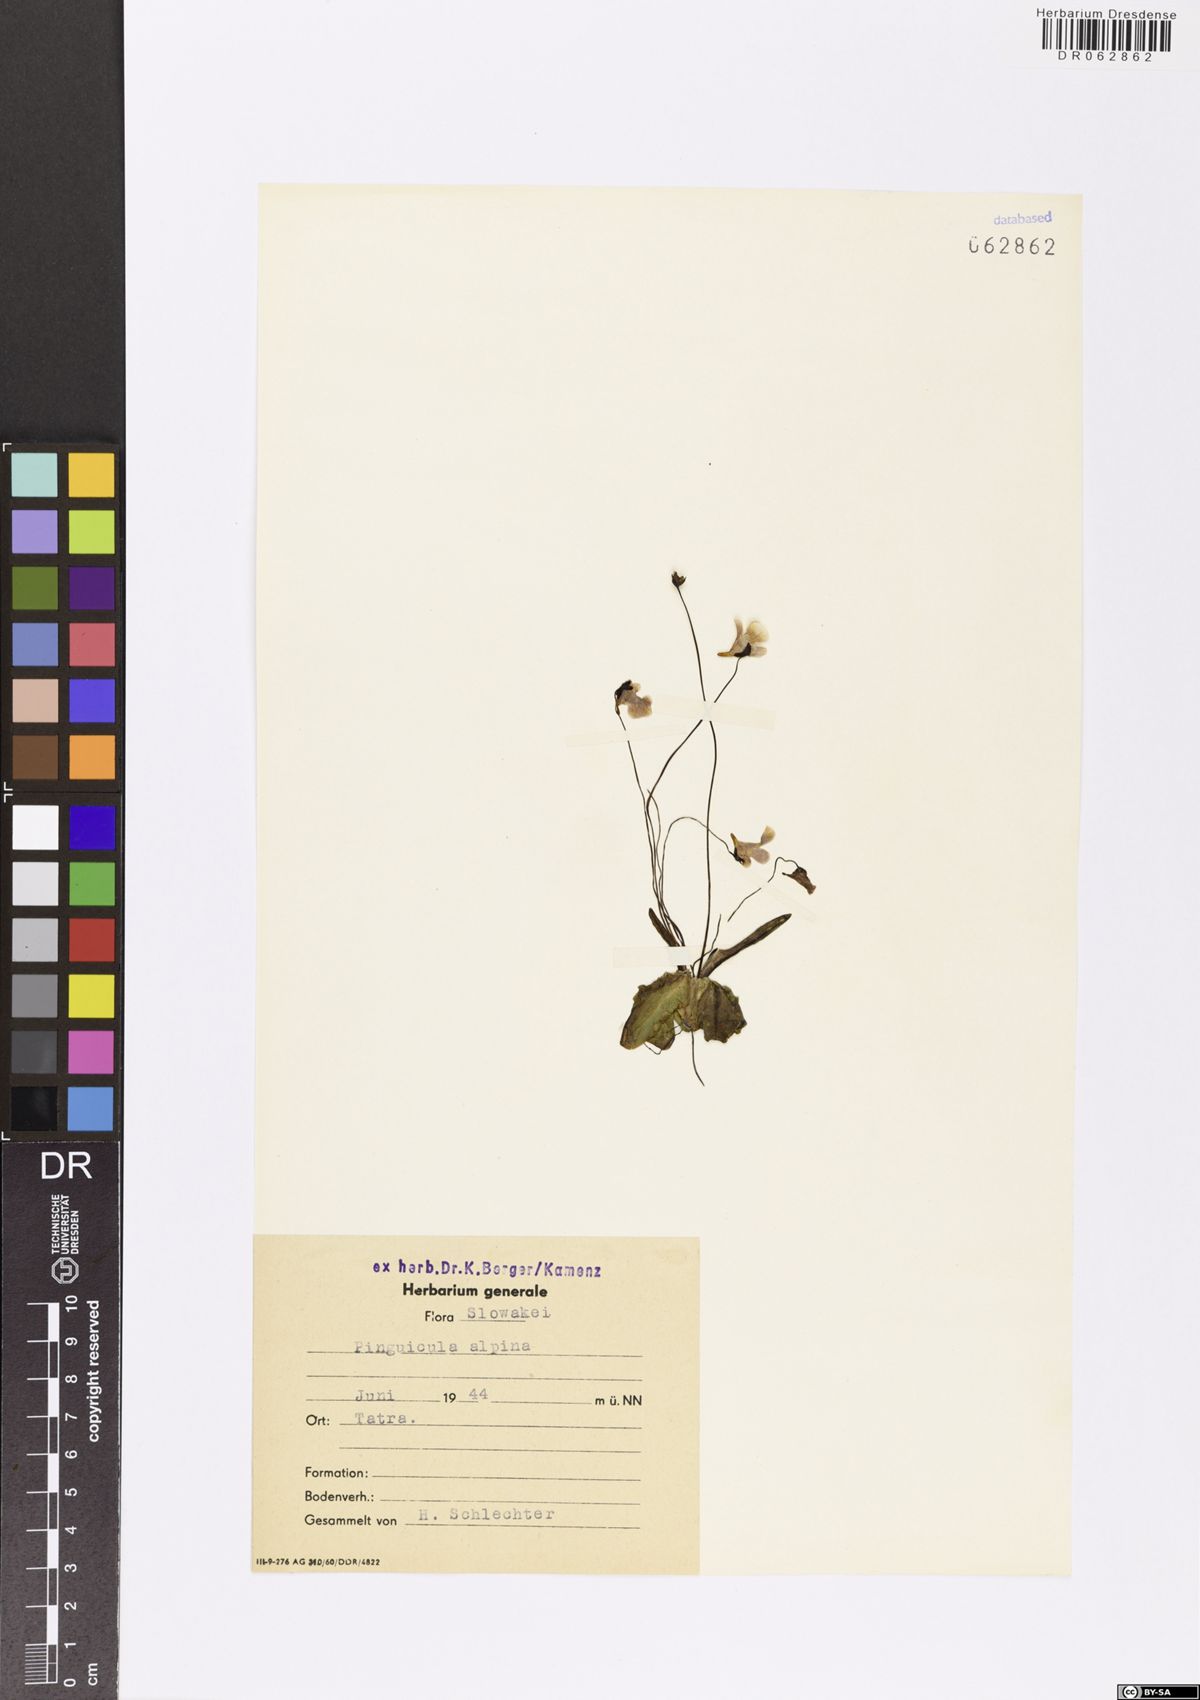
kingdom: Plantae
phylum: Tracheophyta
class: Magnoliopsida
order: Lamiales
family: Lentibulariaceae
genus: Pinguicula
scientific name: Pinguicula alpina
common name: Alpine butterwort
